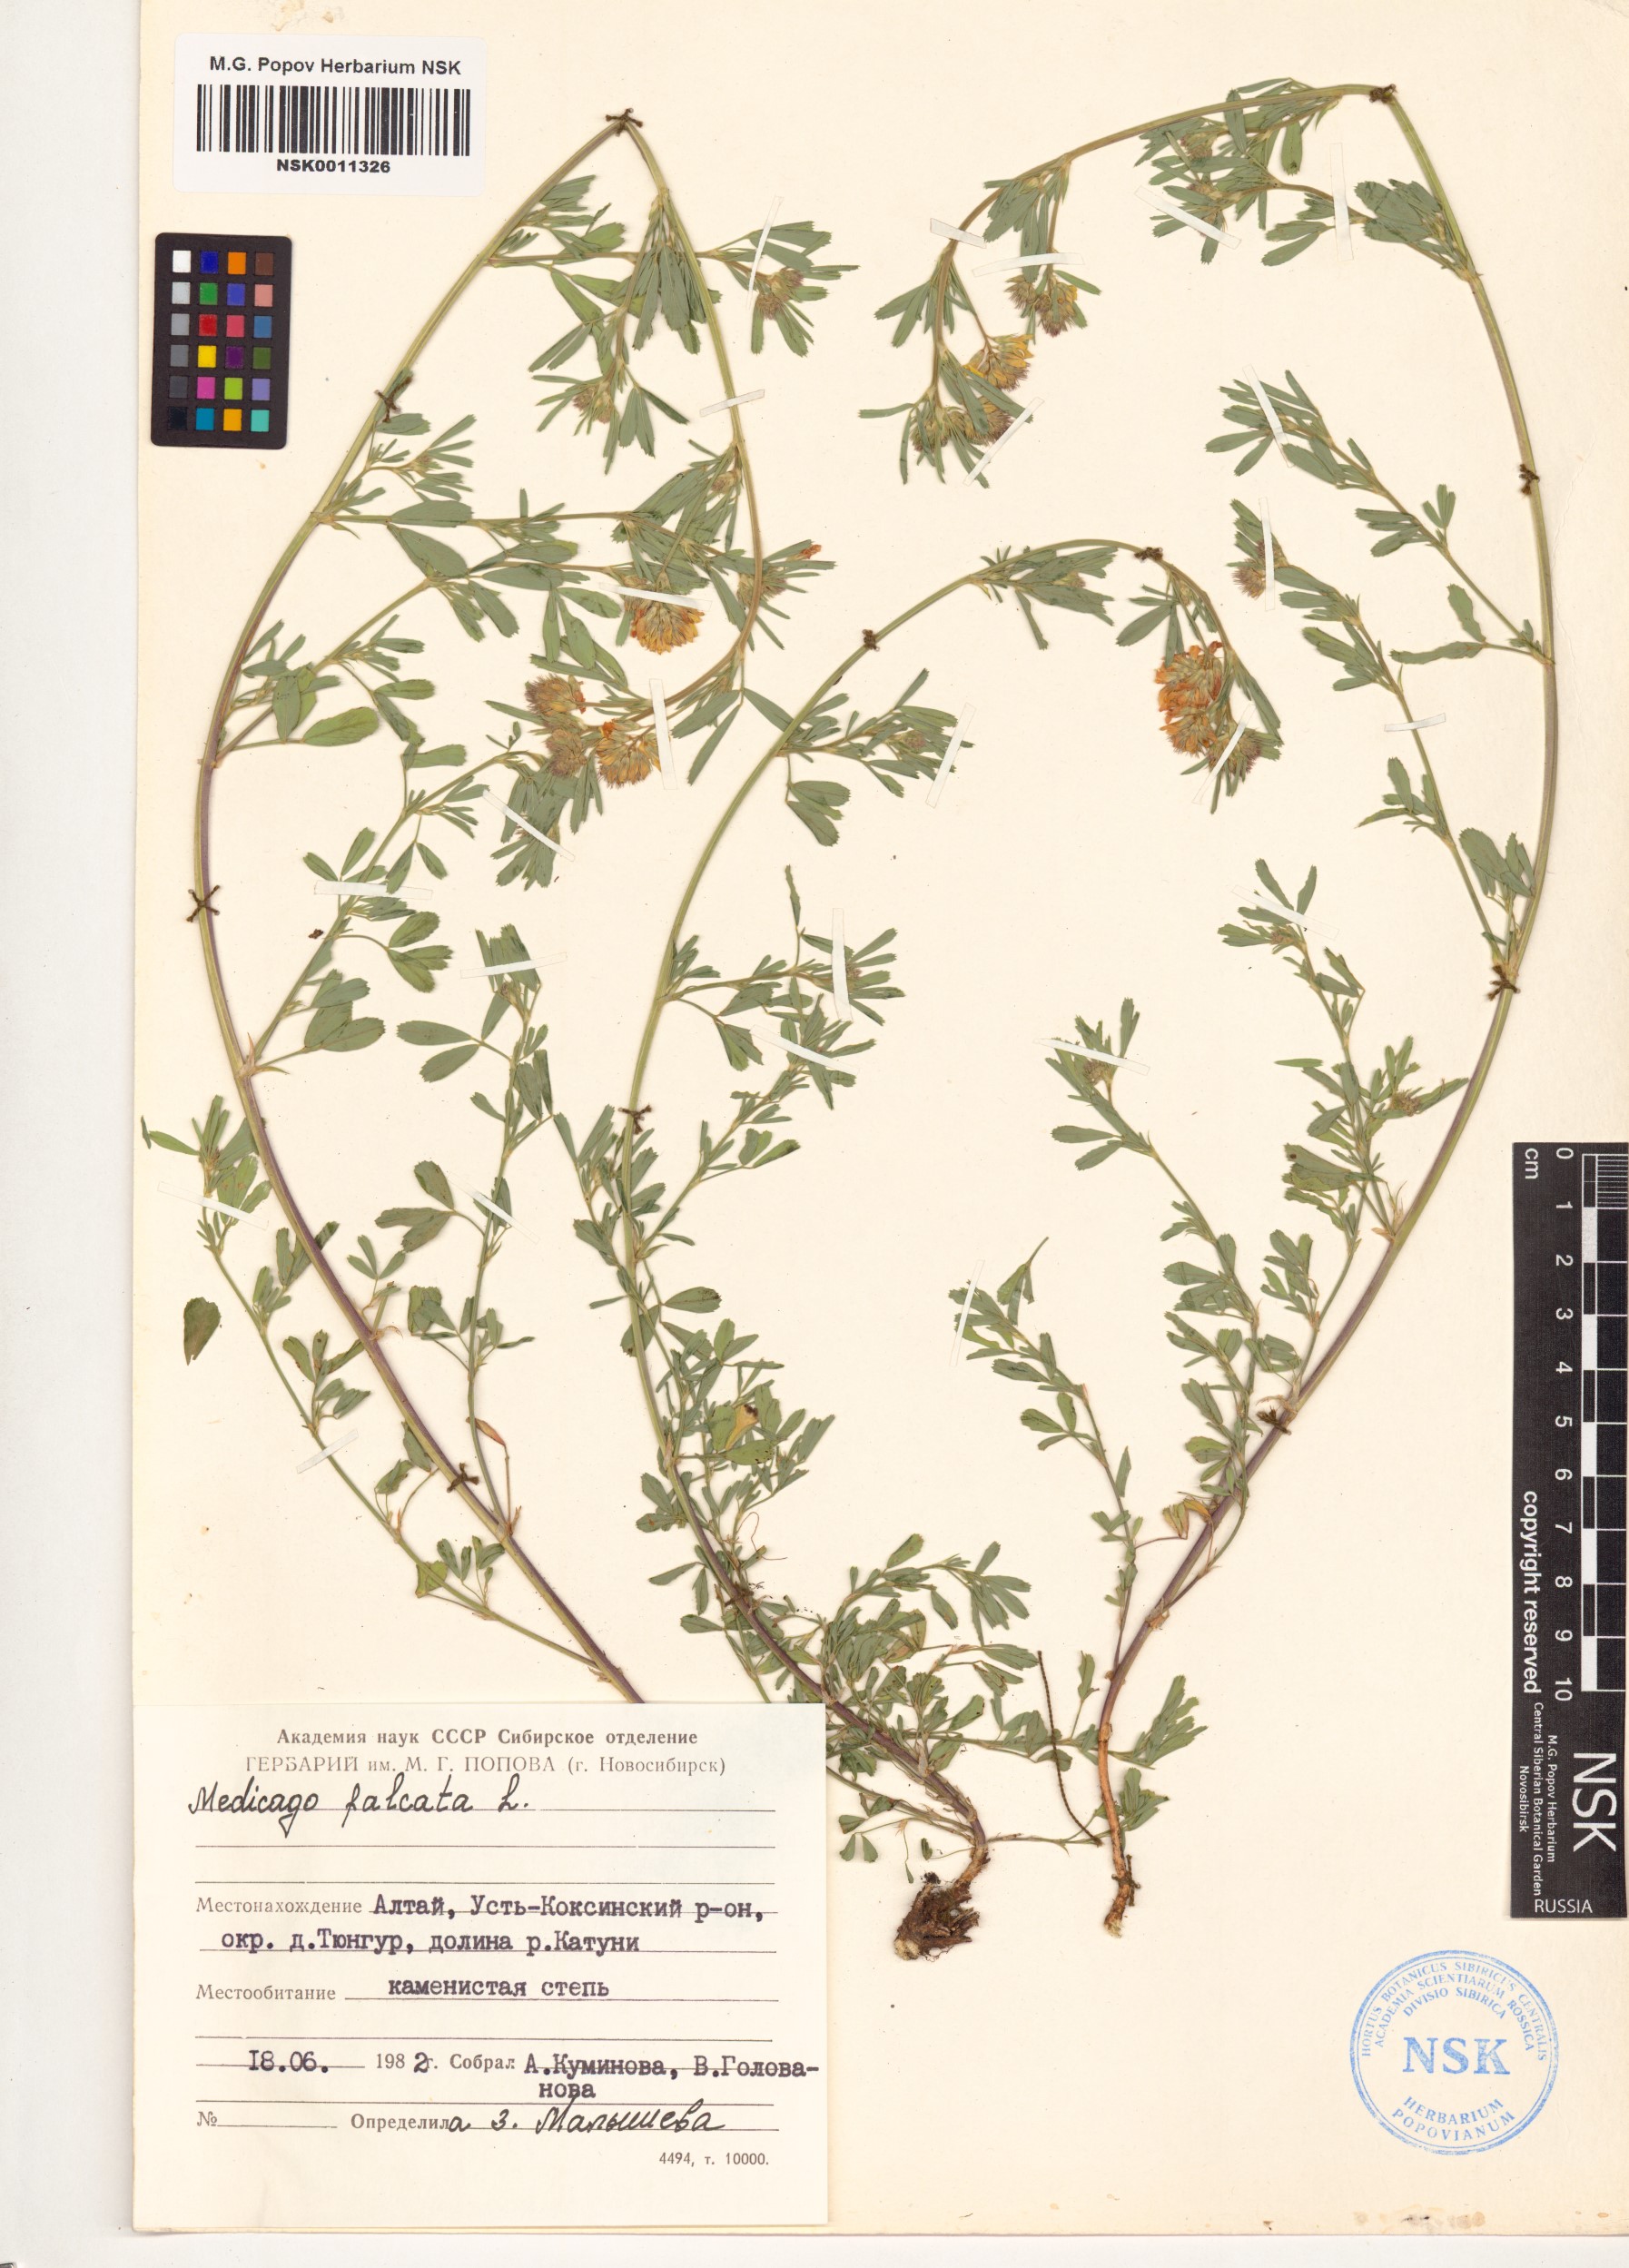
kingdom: Plantae
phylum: Tracheophyta
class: Magnoliopsida
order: Fabales
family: Fabaceae
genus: Medicago
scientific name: Medicago falcata
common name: Sickle medick
